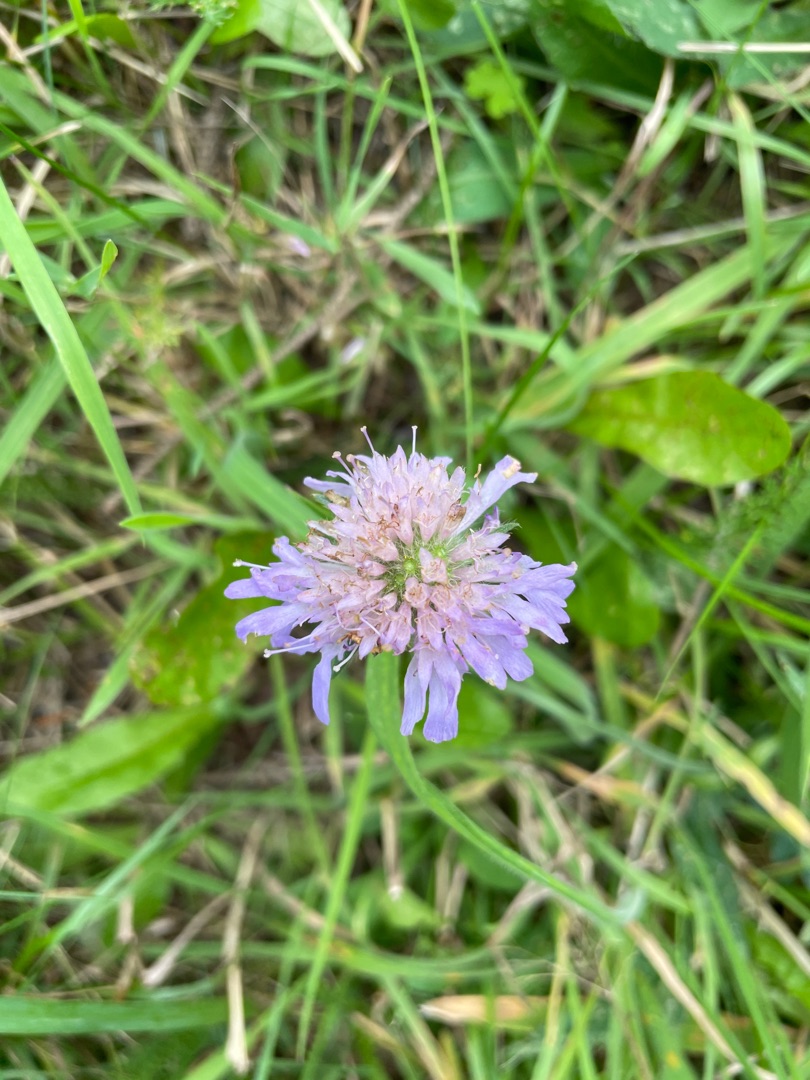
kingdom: Plantae
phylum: Tracheophyta
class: Magnoliopsida
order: Dipsacales
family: Caprifoliaceae
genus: Knautia
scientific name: Knautia arvensis
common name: Blåhat
